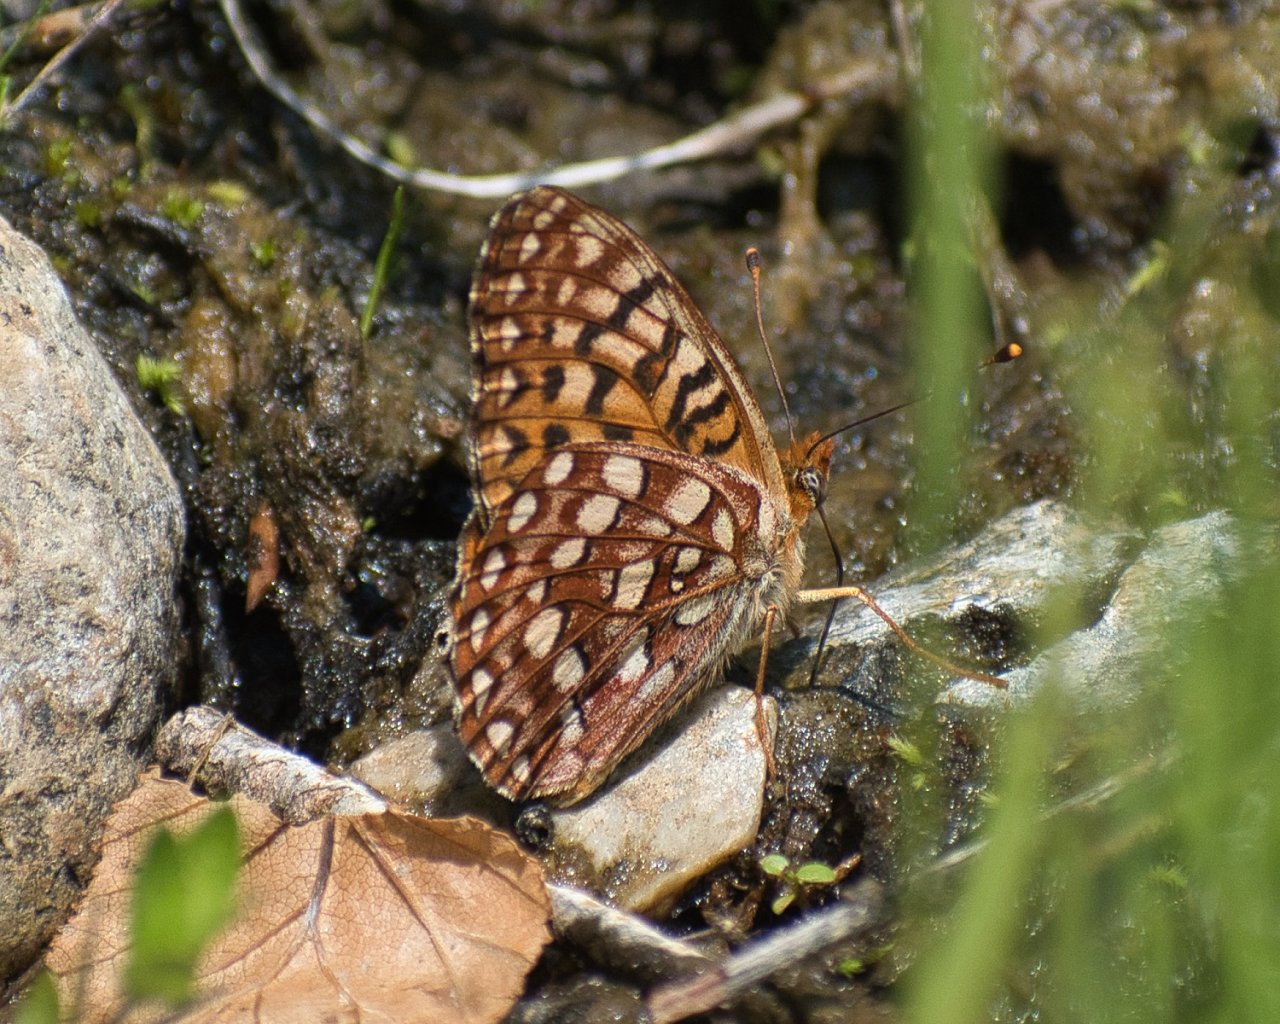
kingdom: Animalia
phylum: Arthropoda
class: Insecta
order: Lepidoptera
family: Nymphalidae
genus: Speyeria
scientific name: Speyeria hydaspe
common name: Hydaspe Fritillary
